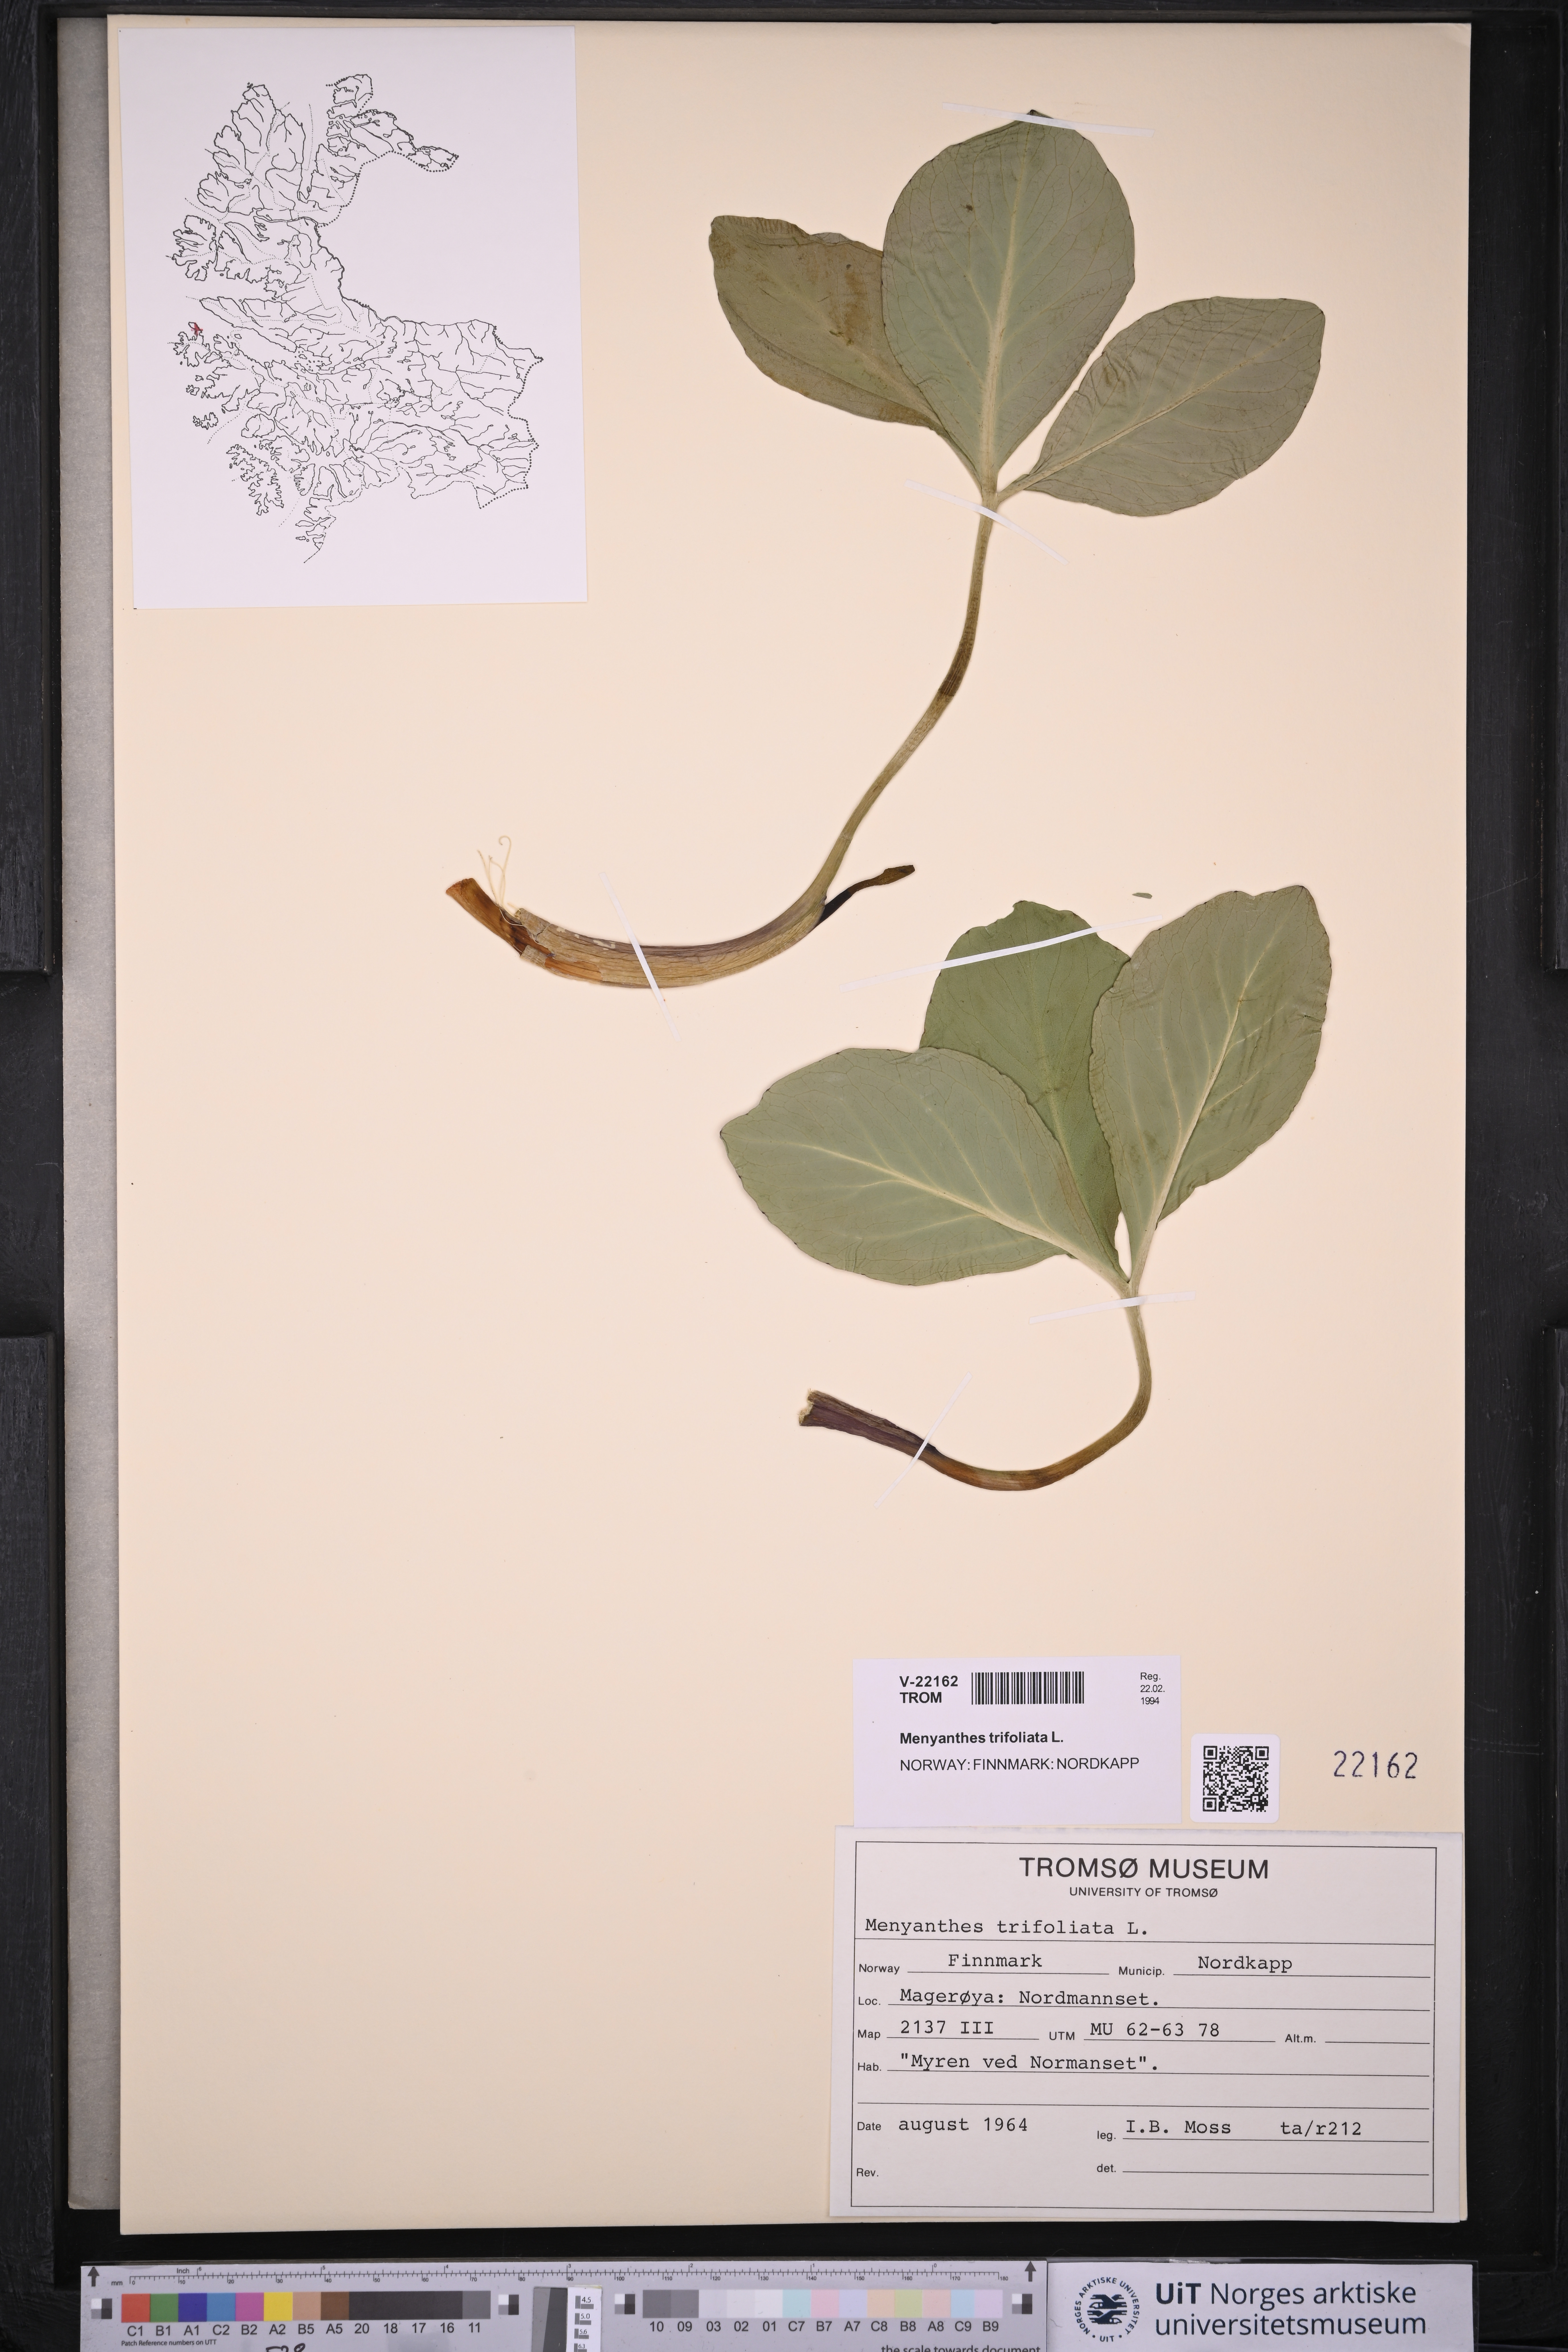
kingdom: Plantae
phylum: Tracheophyta
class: Magnoliopsida
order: Asterales
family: Menyanthaceae
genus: Menyanthes
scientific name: Menyanthes trifoliata
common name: Bogbean
